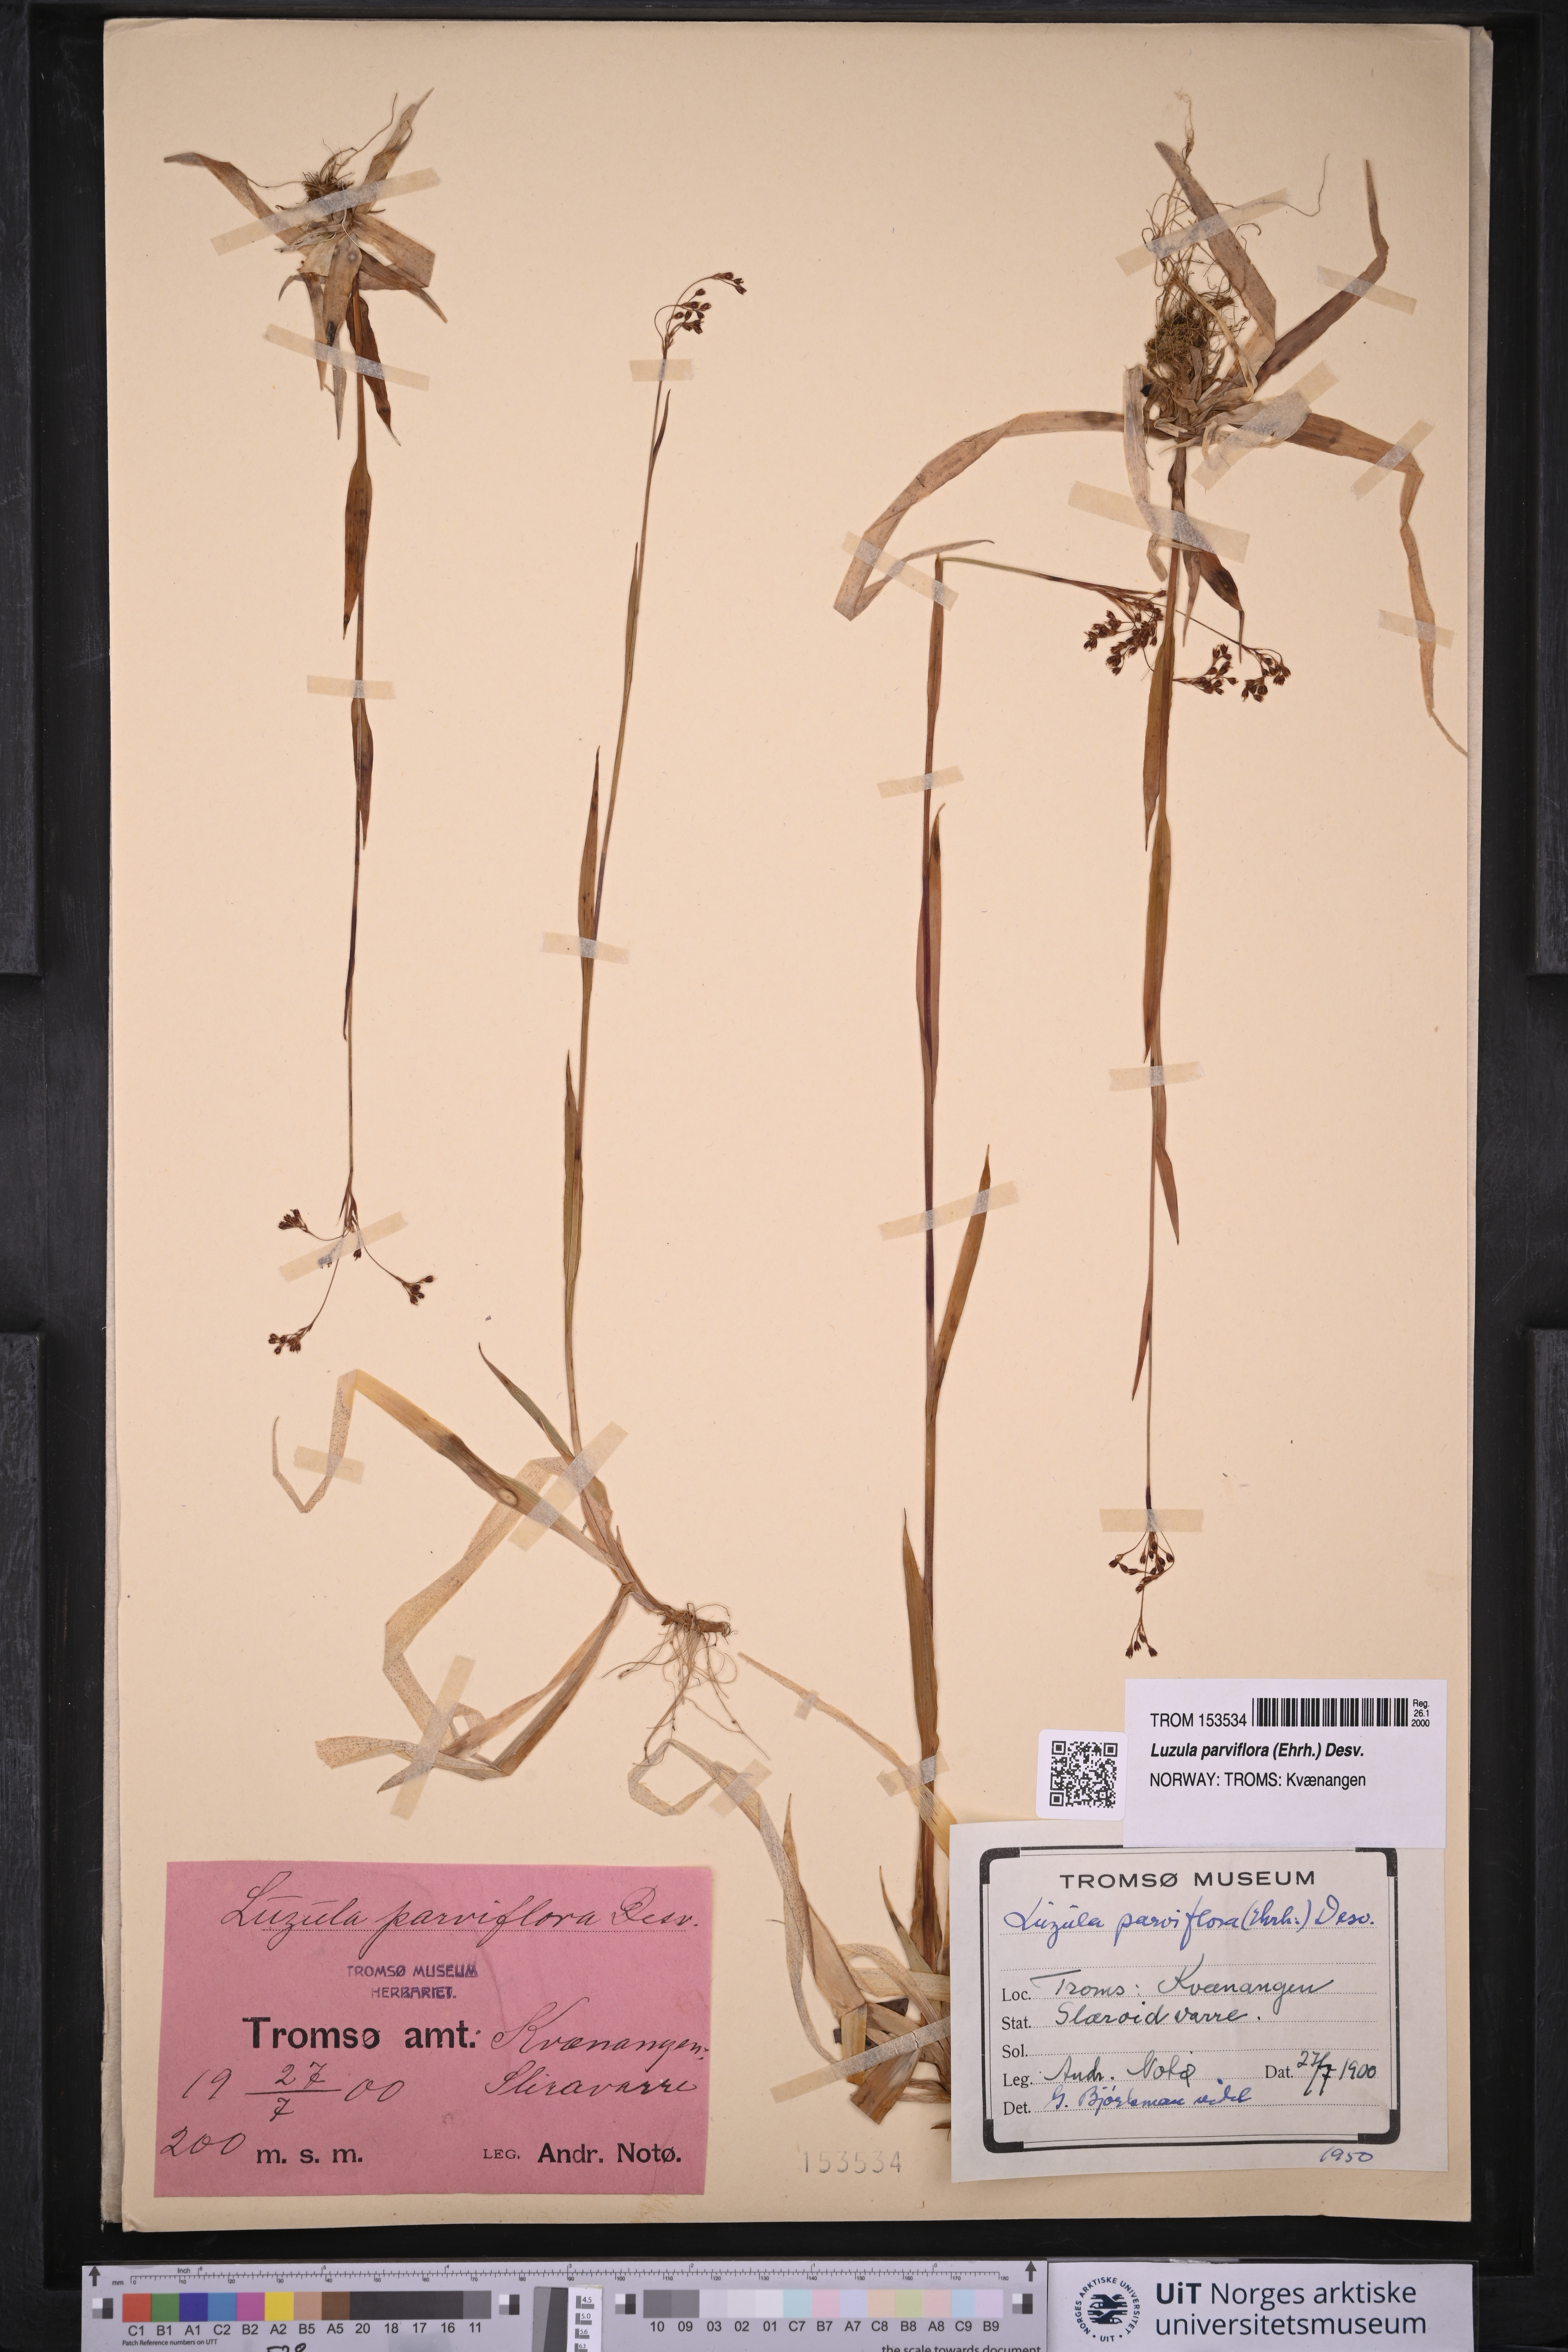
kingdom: Plantae
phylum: Tracheophyta
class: Liliopsida
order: Poales
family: Juncaceae
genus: Luzula
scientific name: Luzula parviflora
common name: Millet woodrush
